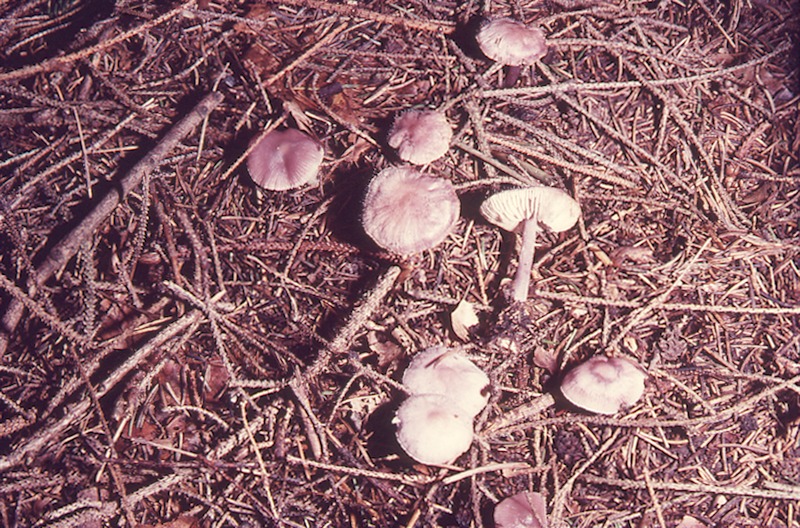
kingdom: Fungi
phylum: Basidiomycota
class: Agaricomycetes
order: Agaricales
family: Mycenaceae
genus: Mycena
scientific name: Mycena pura
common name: Lilac bonnet
